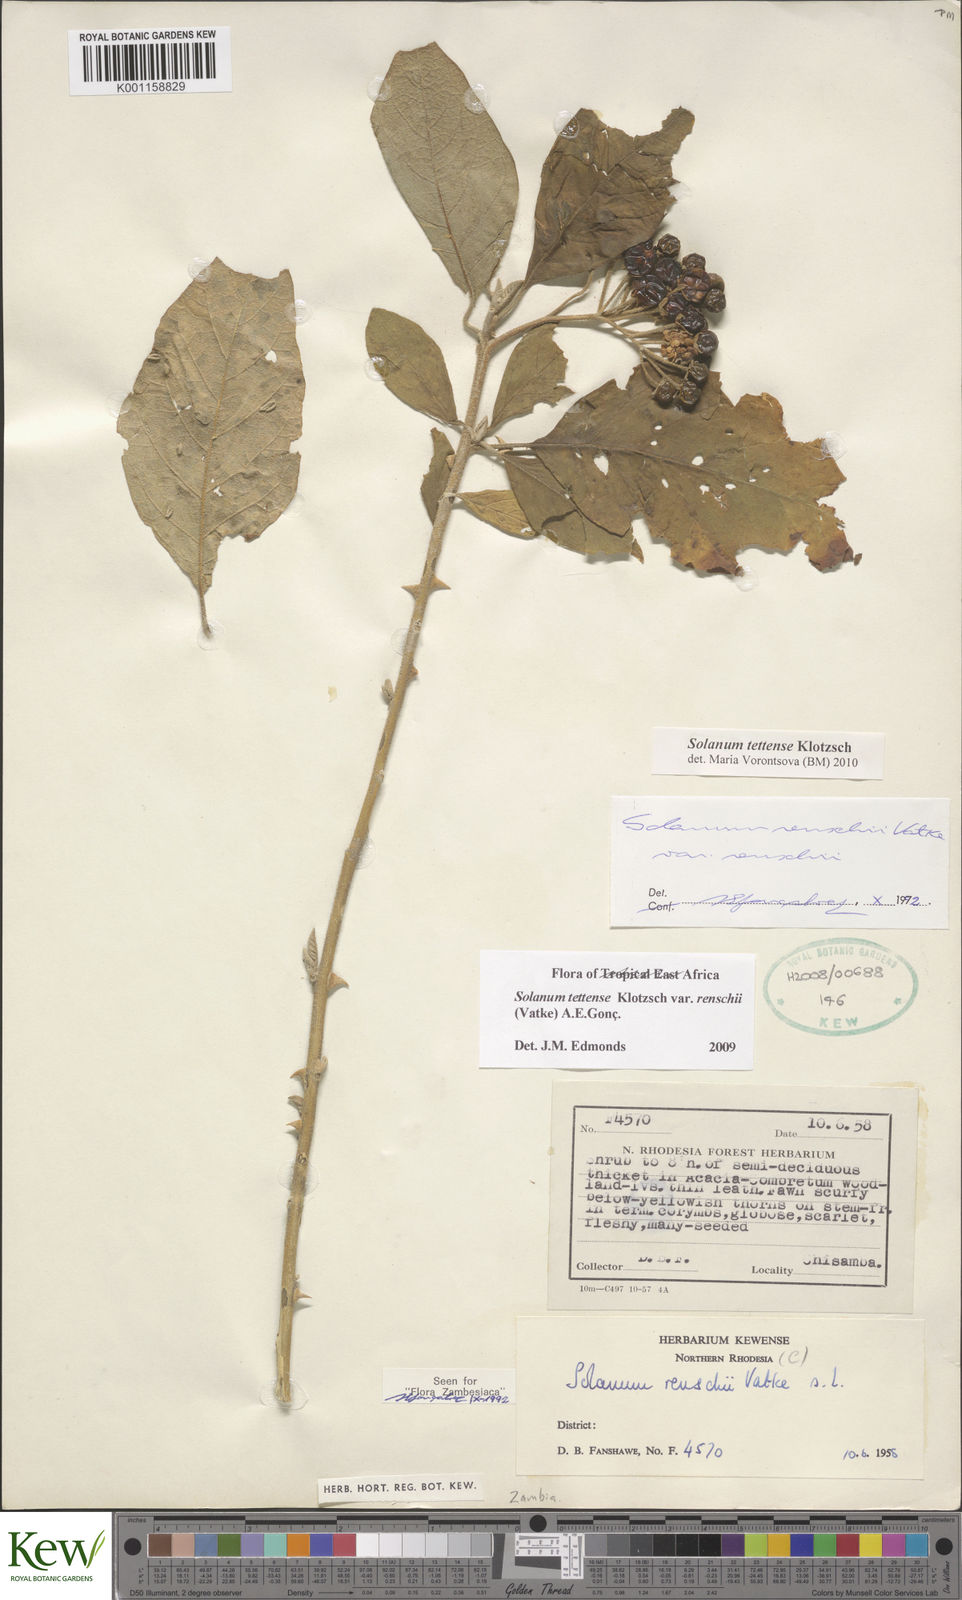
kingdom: Plantae
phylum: Tracheophyta
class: Magnoliopsida
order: Solanales
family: Solanaceae
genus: Solanum
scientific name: Solanum tettense
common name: Mozambique bitter apple
